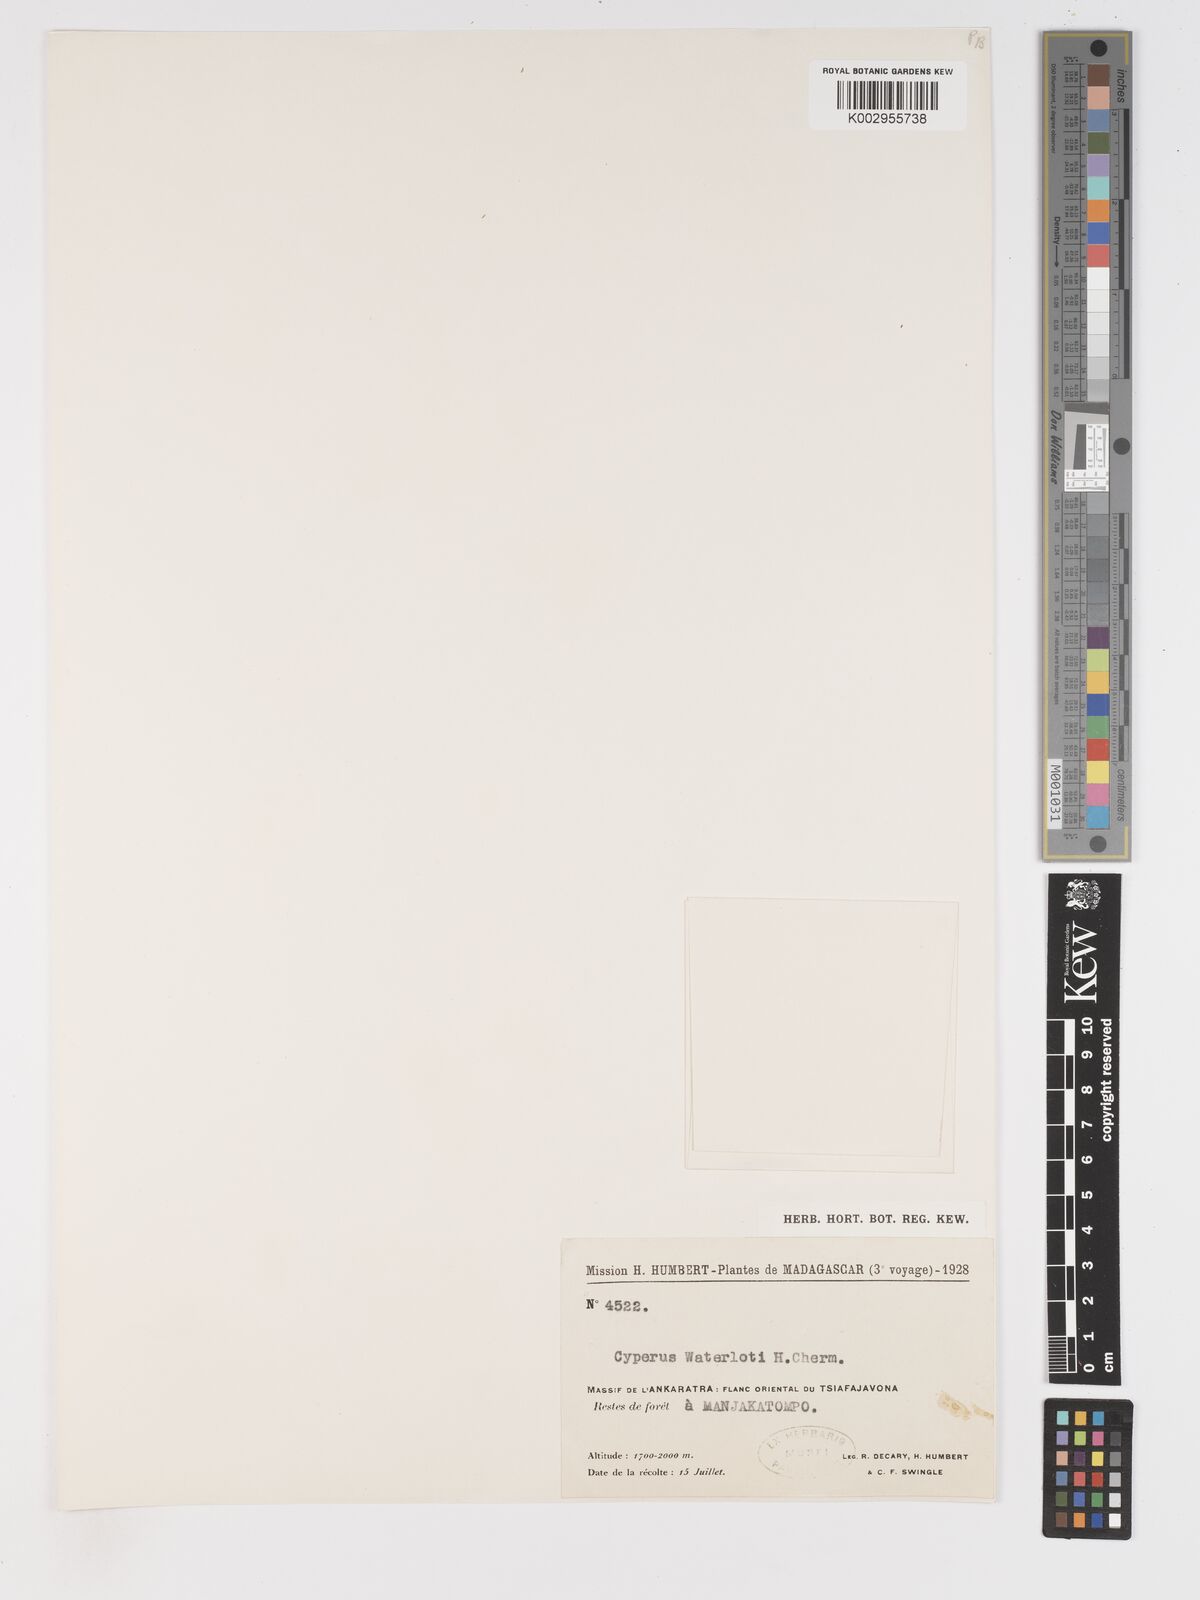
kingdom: Plantae
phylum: Tracheophyta
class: Liliopsida
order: Poales
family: Cyperaceae
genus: Cyperus
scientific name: Cyperus cuspidatus
